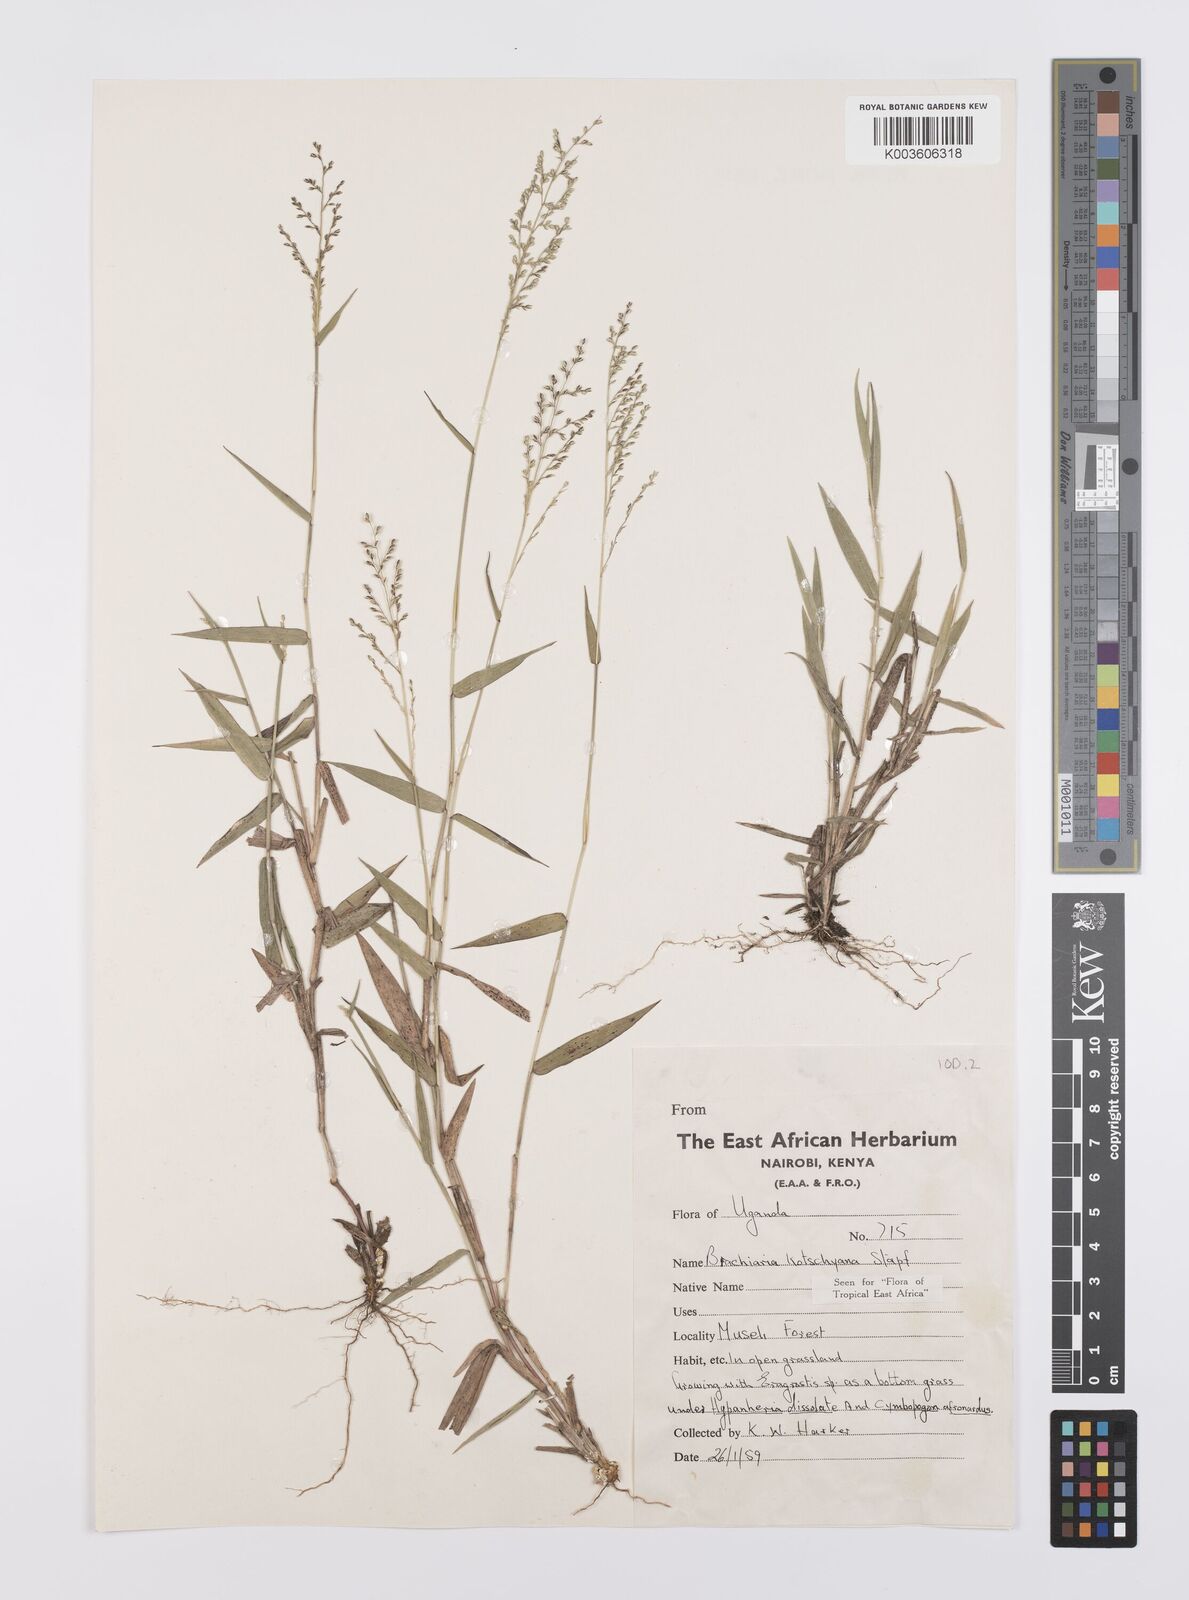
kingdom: Plantae
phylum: Tracheophyta
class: Liliopsida
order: Poales
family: Poaceae
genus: Urochloa
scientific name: Urochloa comata
